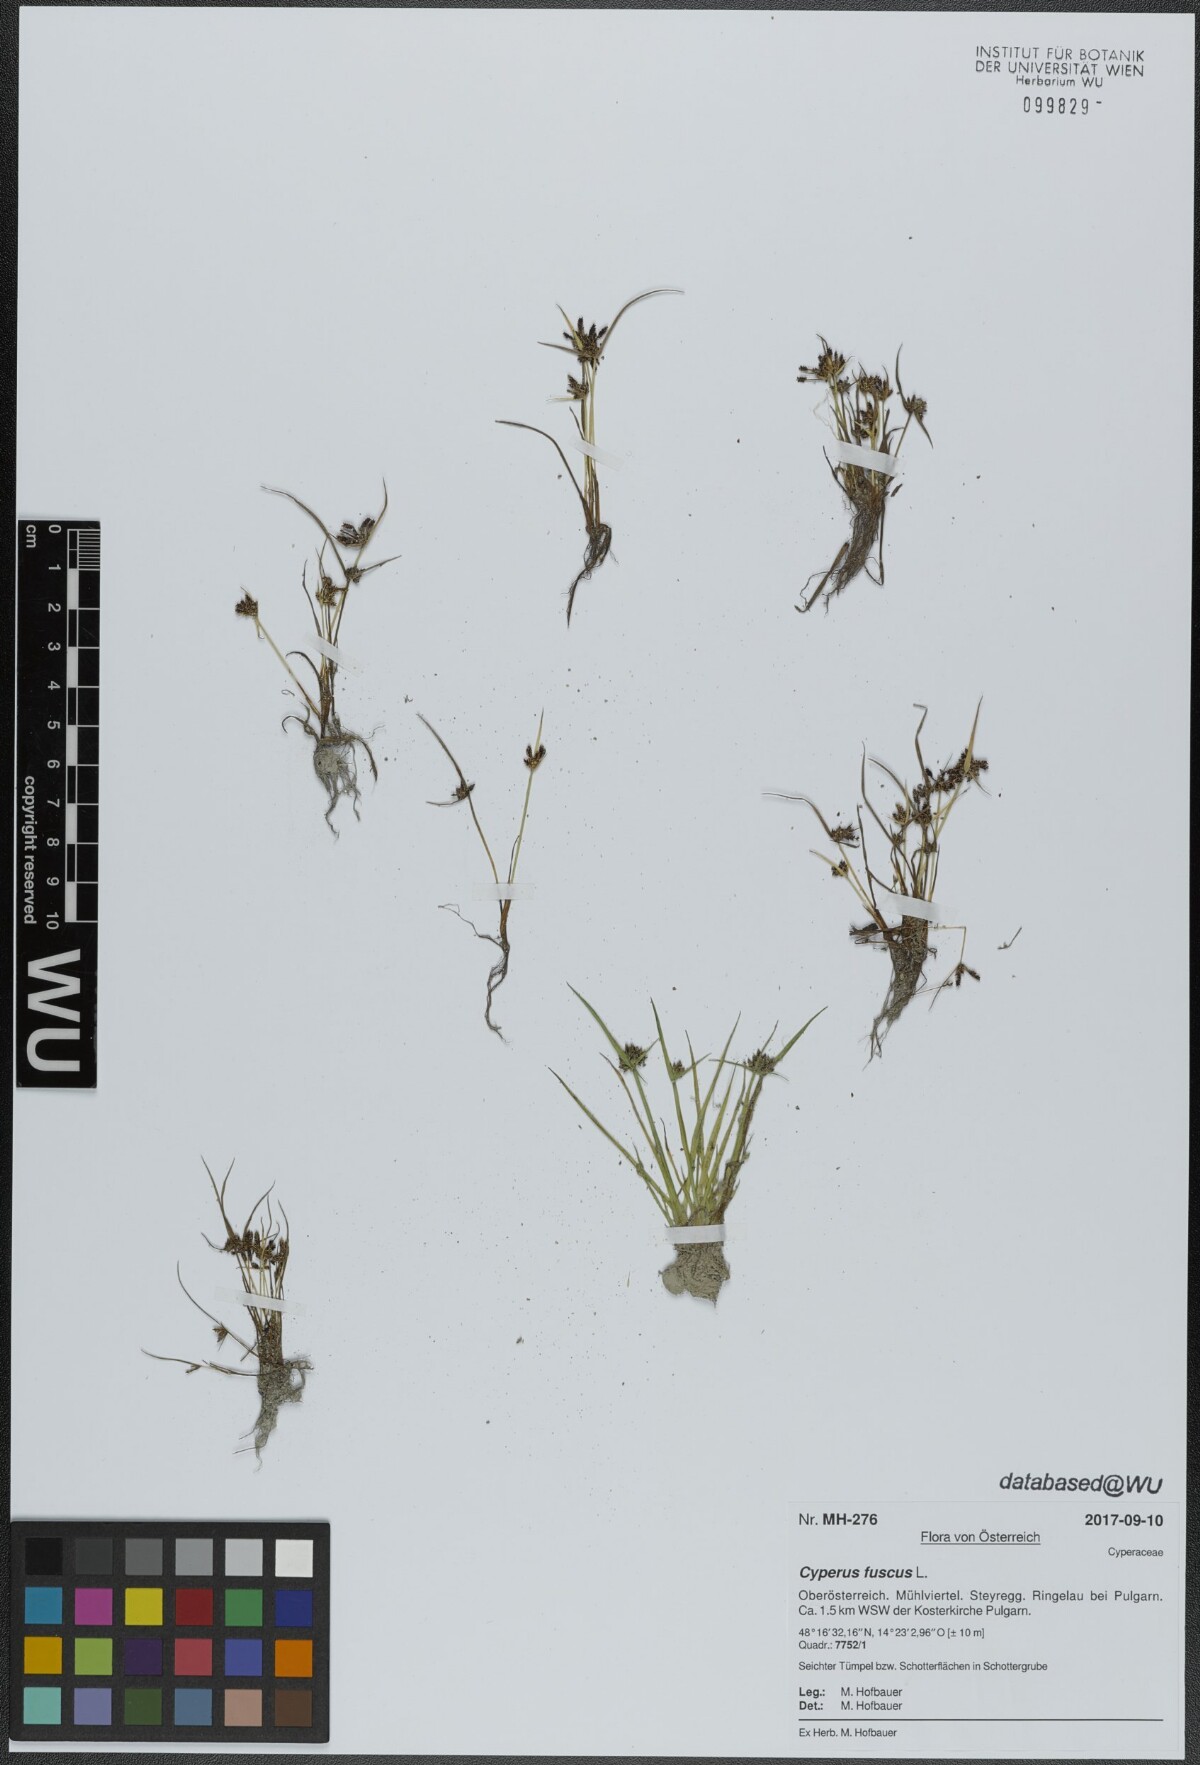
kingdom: Plantae
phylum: Tracheophyta
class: Liliopsida
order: Poales
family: Cyperaceae
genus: Cyperus
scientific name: Cyperus fuscus
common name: Brown galingale
